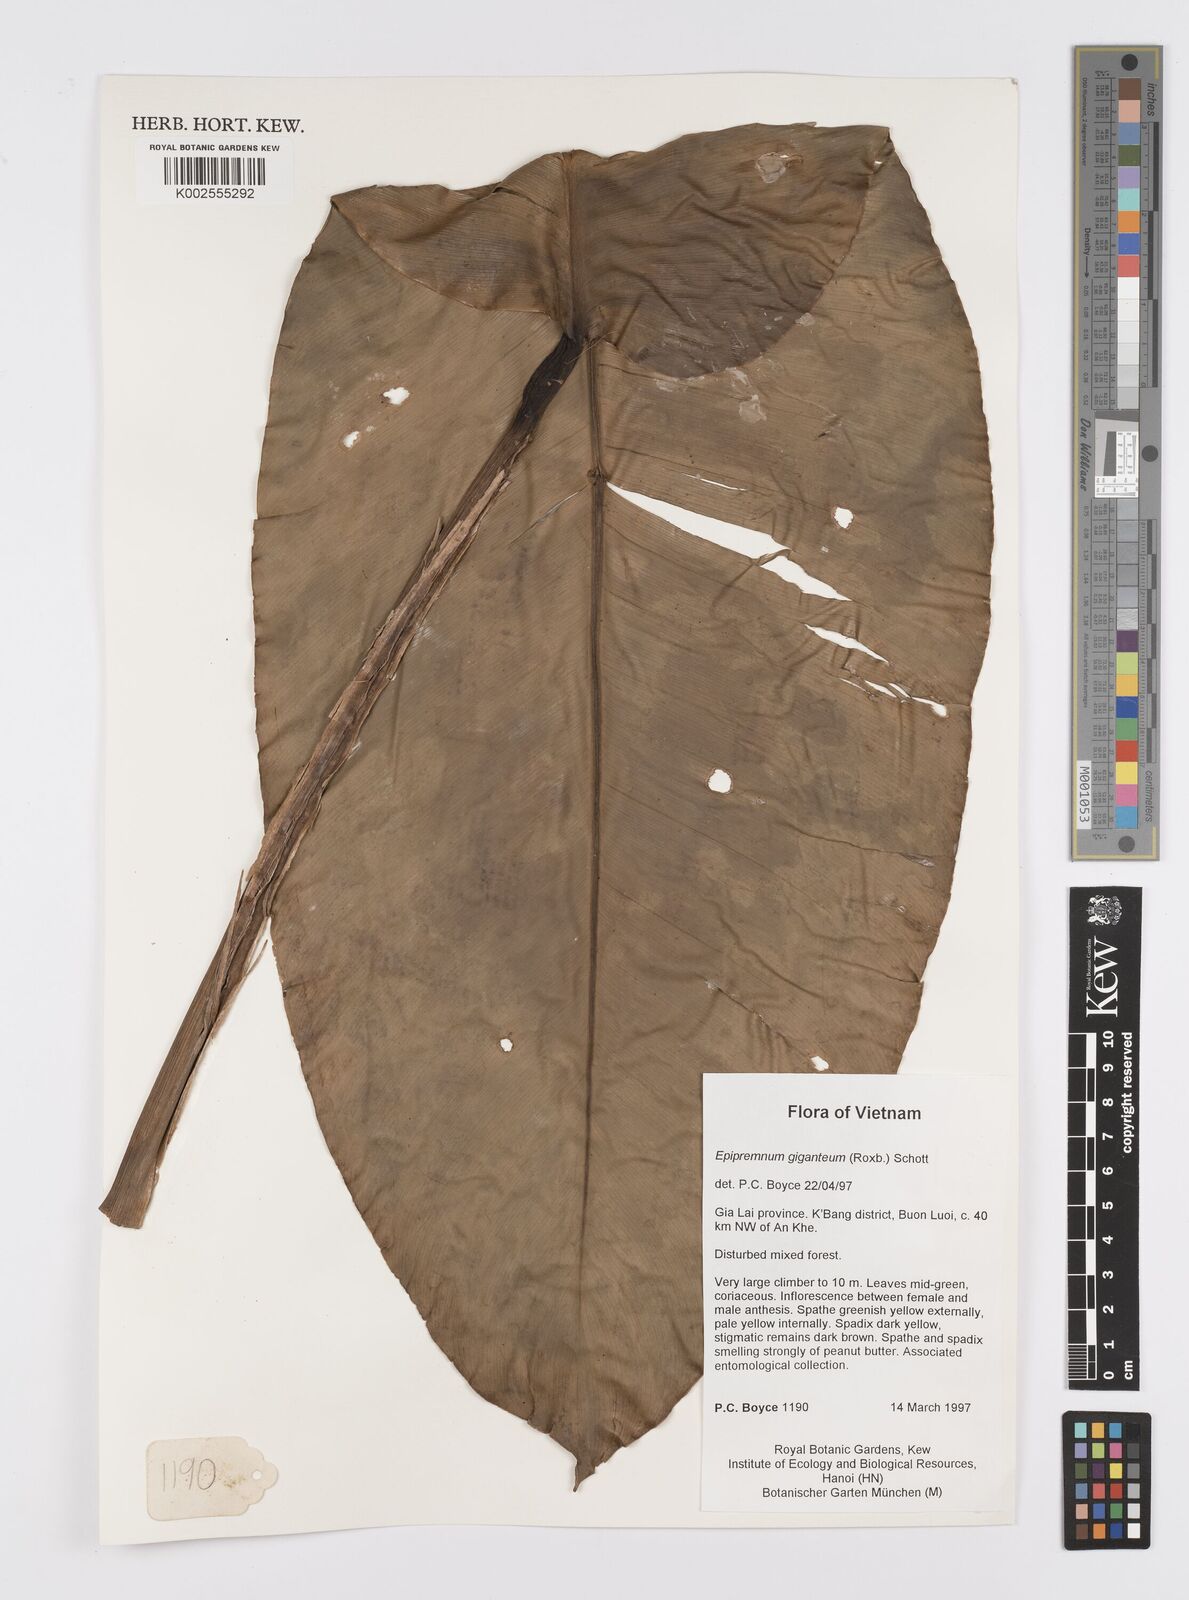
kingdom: Plantae
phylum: Tracheophyta
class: Liliopsida
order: Alismatales
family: Araceae
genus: Epipremnum
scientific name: Epipremnum giganteum
